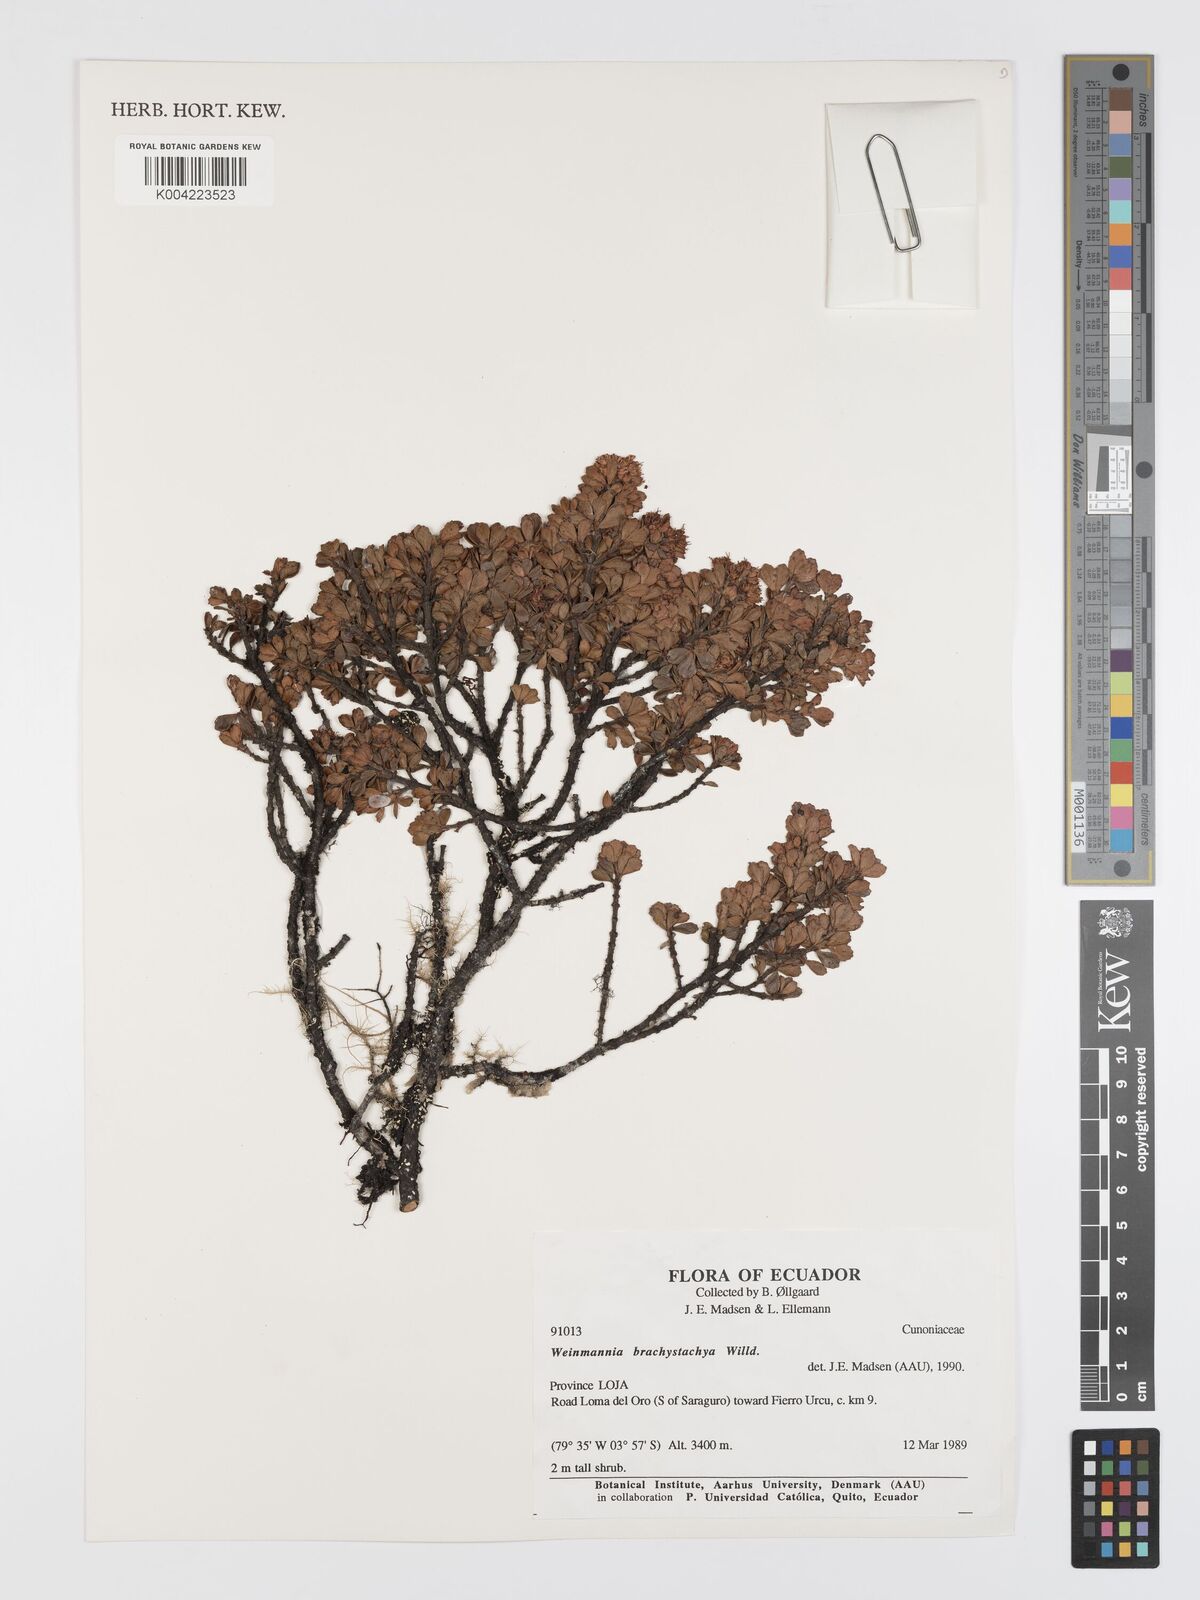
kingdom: Plantae
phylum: Tracheophyta
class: Magnoliopsida
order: Oxalidales
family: Cunoniaceae
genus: Weinmannia
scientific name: Weinmannia microphylla
